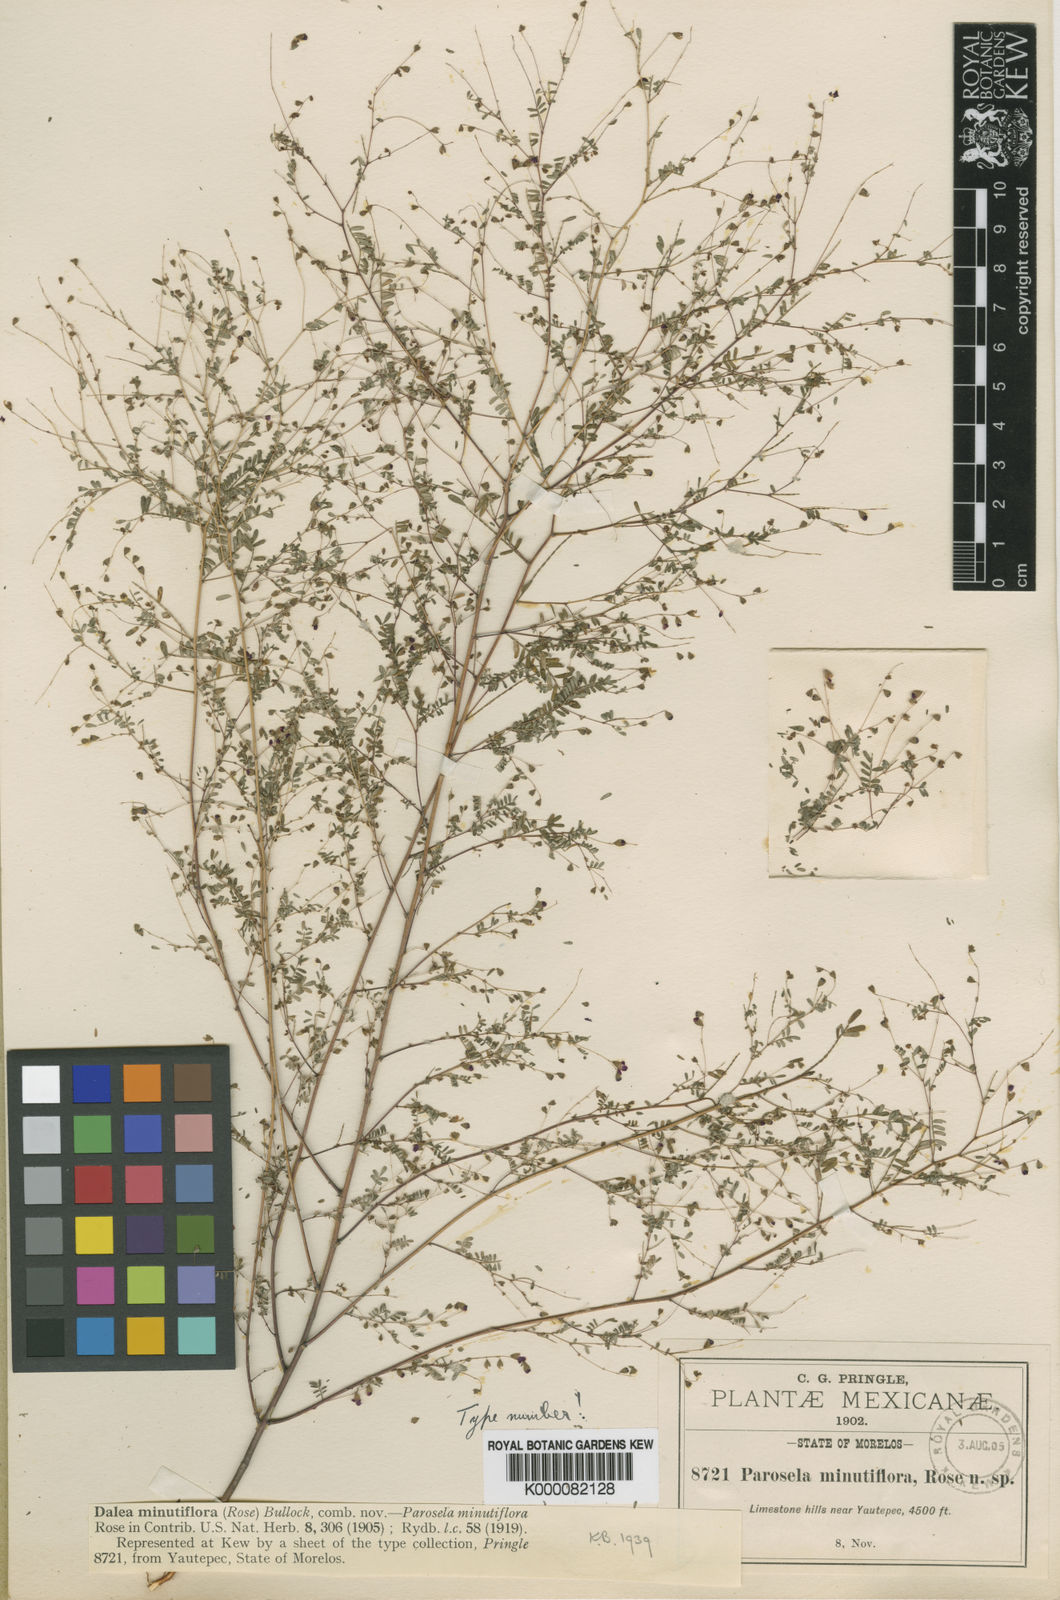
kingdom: Plantae
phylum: Tracheophyta
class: Magnoliopsida
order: Fabales
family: Fabaceae
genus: Marina
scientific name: Marina minutiflora
